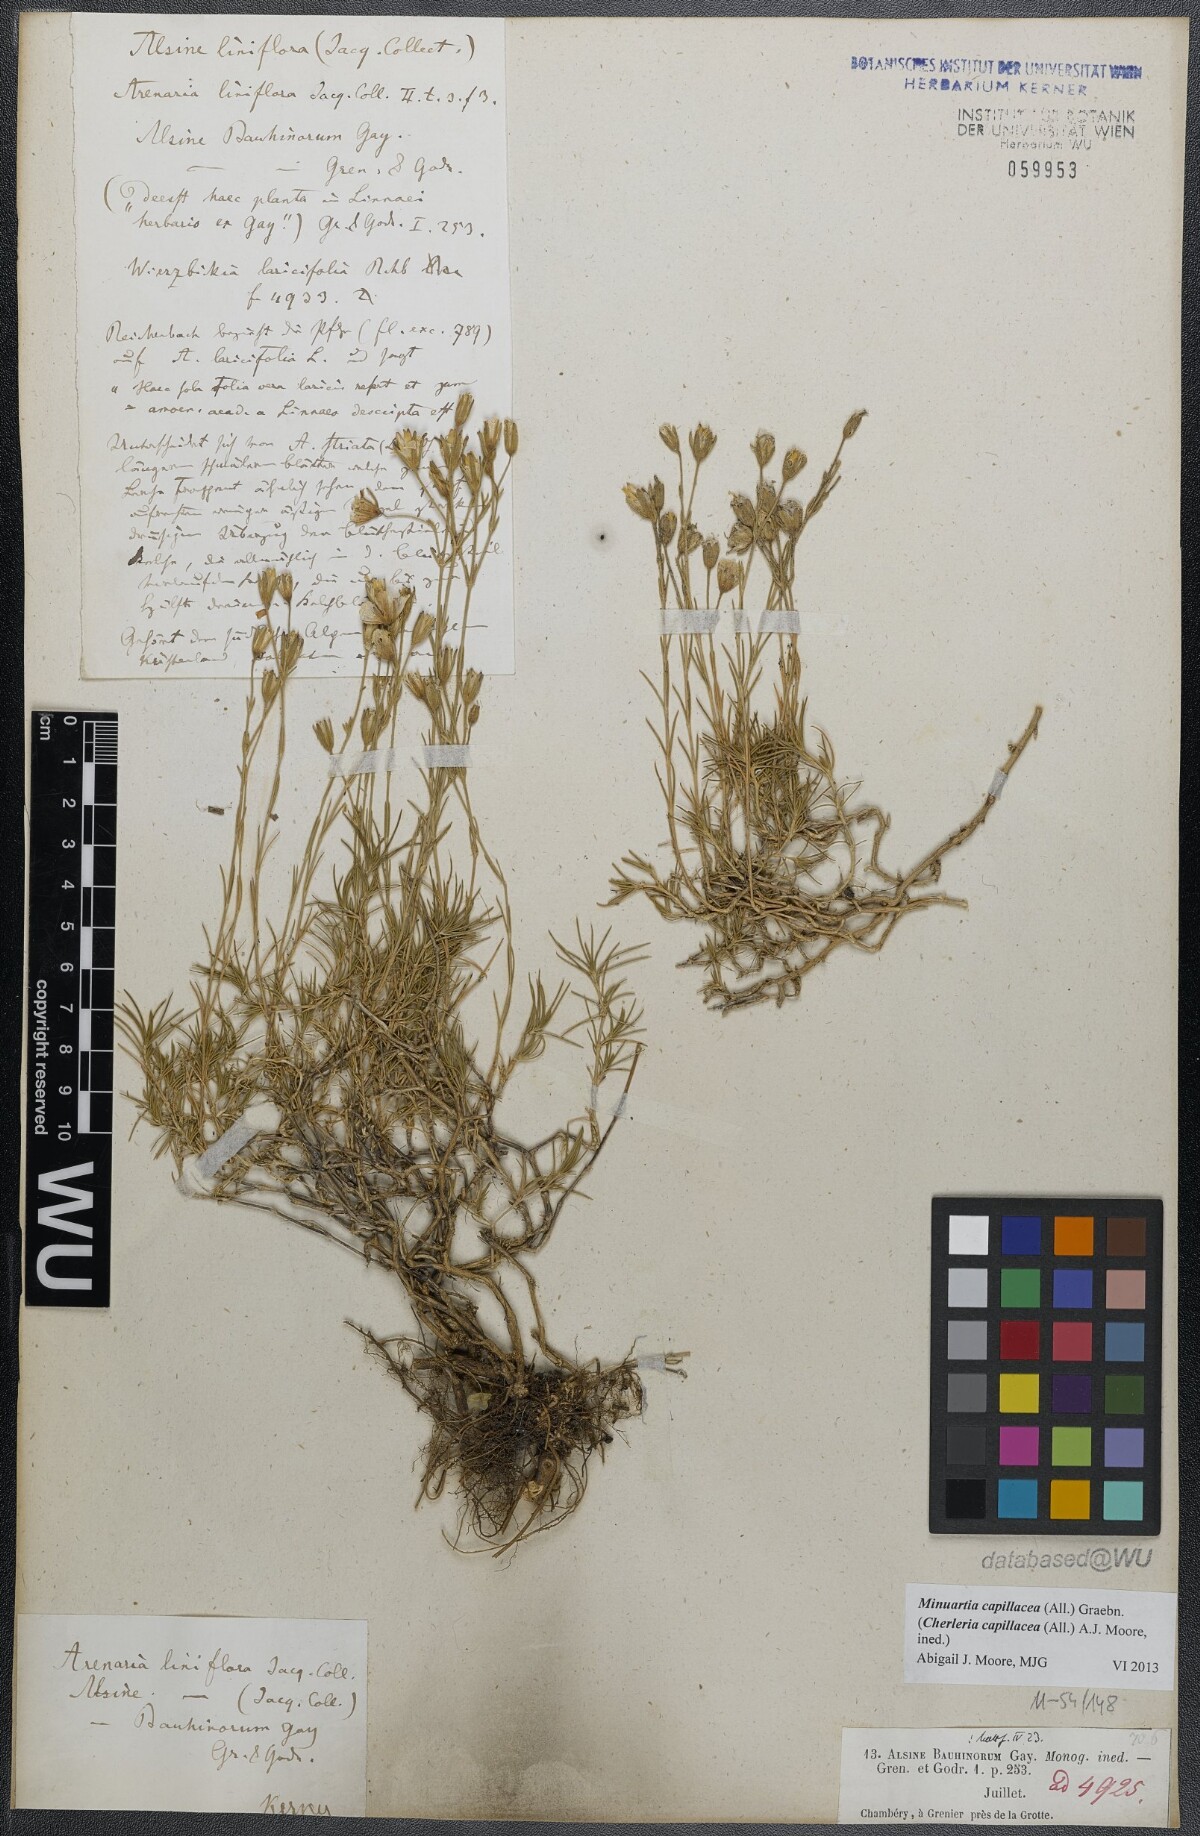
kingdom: Plantae
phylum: Tracheophyta
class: Magnoliopsida
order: Caryophyllales
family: Caryophyllaceae
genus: Cherleria
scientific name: Cherleria capillacea
